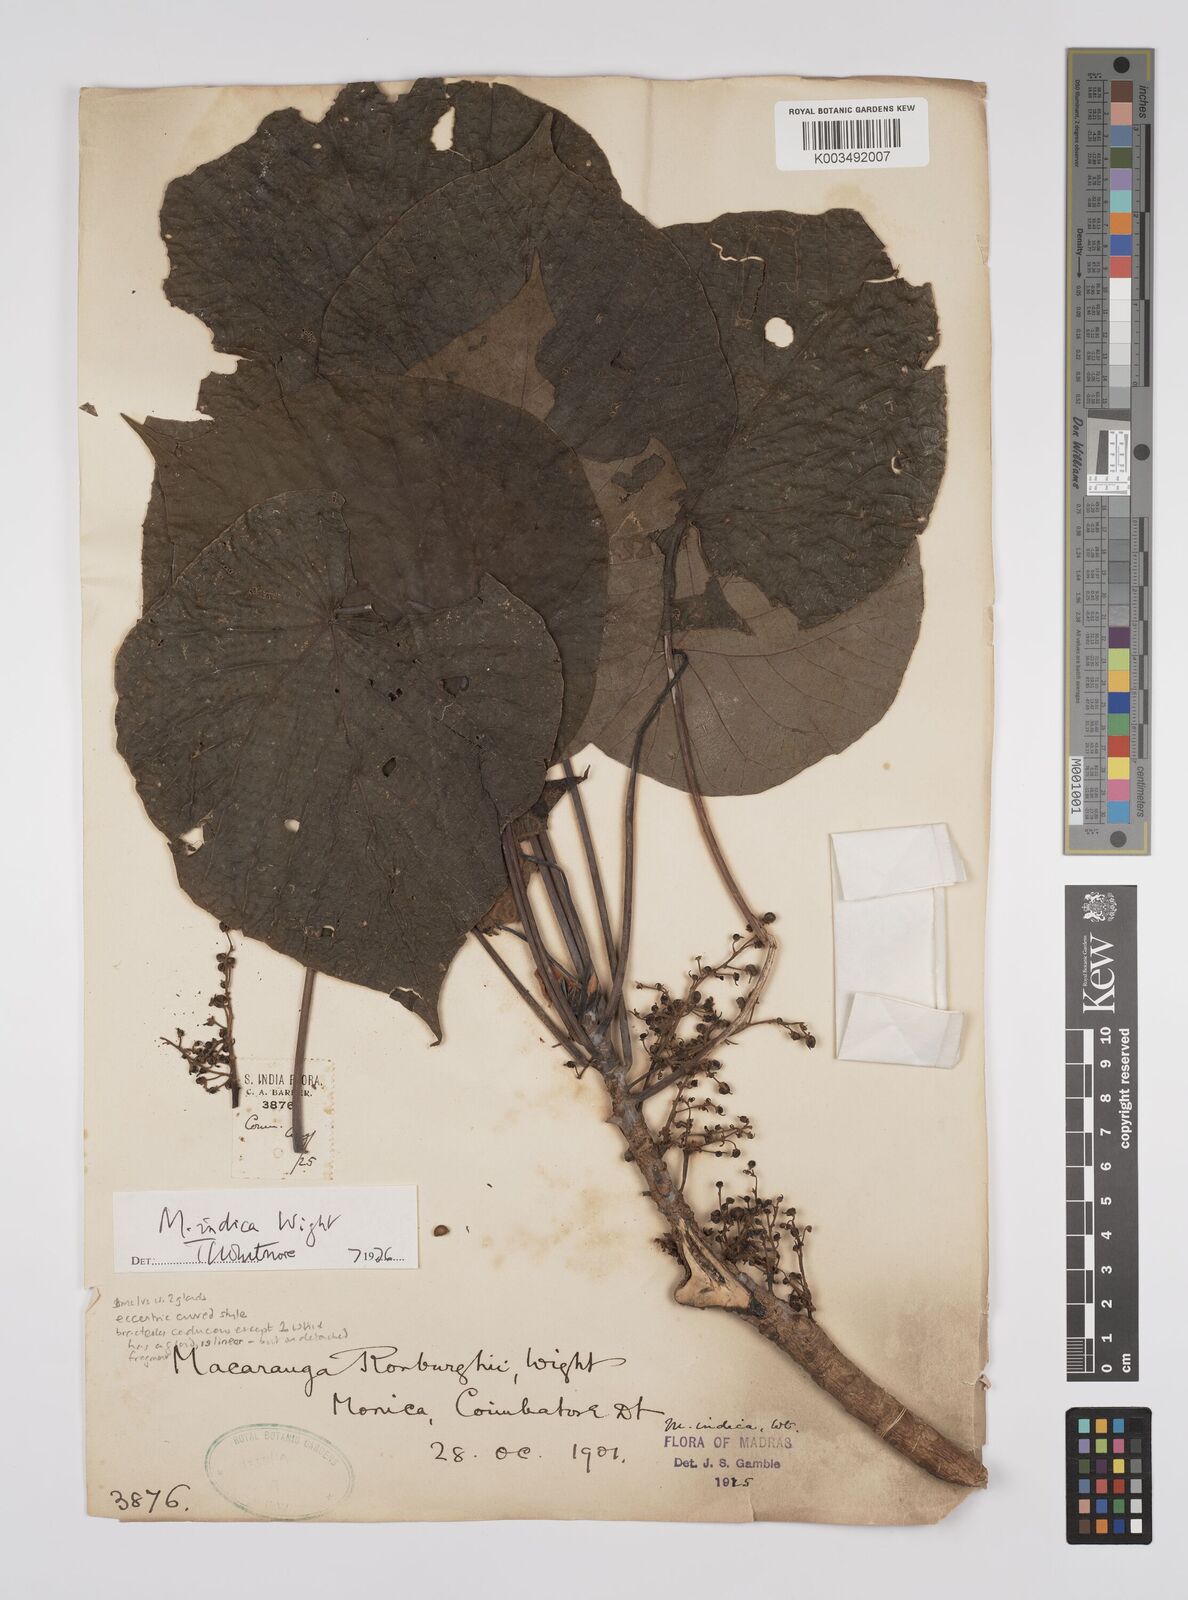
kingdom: Plantae
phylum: Tracheophyta
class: Magnoliopsida
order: Malpighiales
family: Euphorbiaceae
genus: Macaranga
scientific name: Macaranga indica
